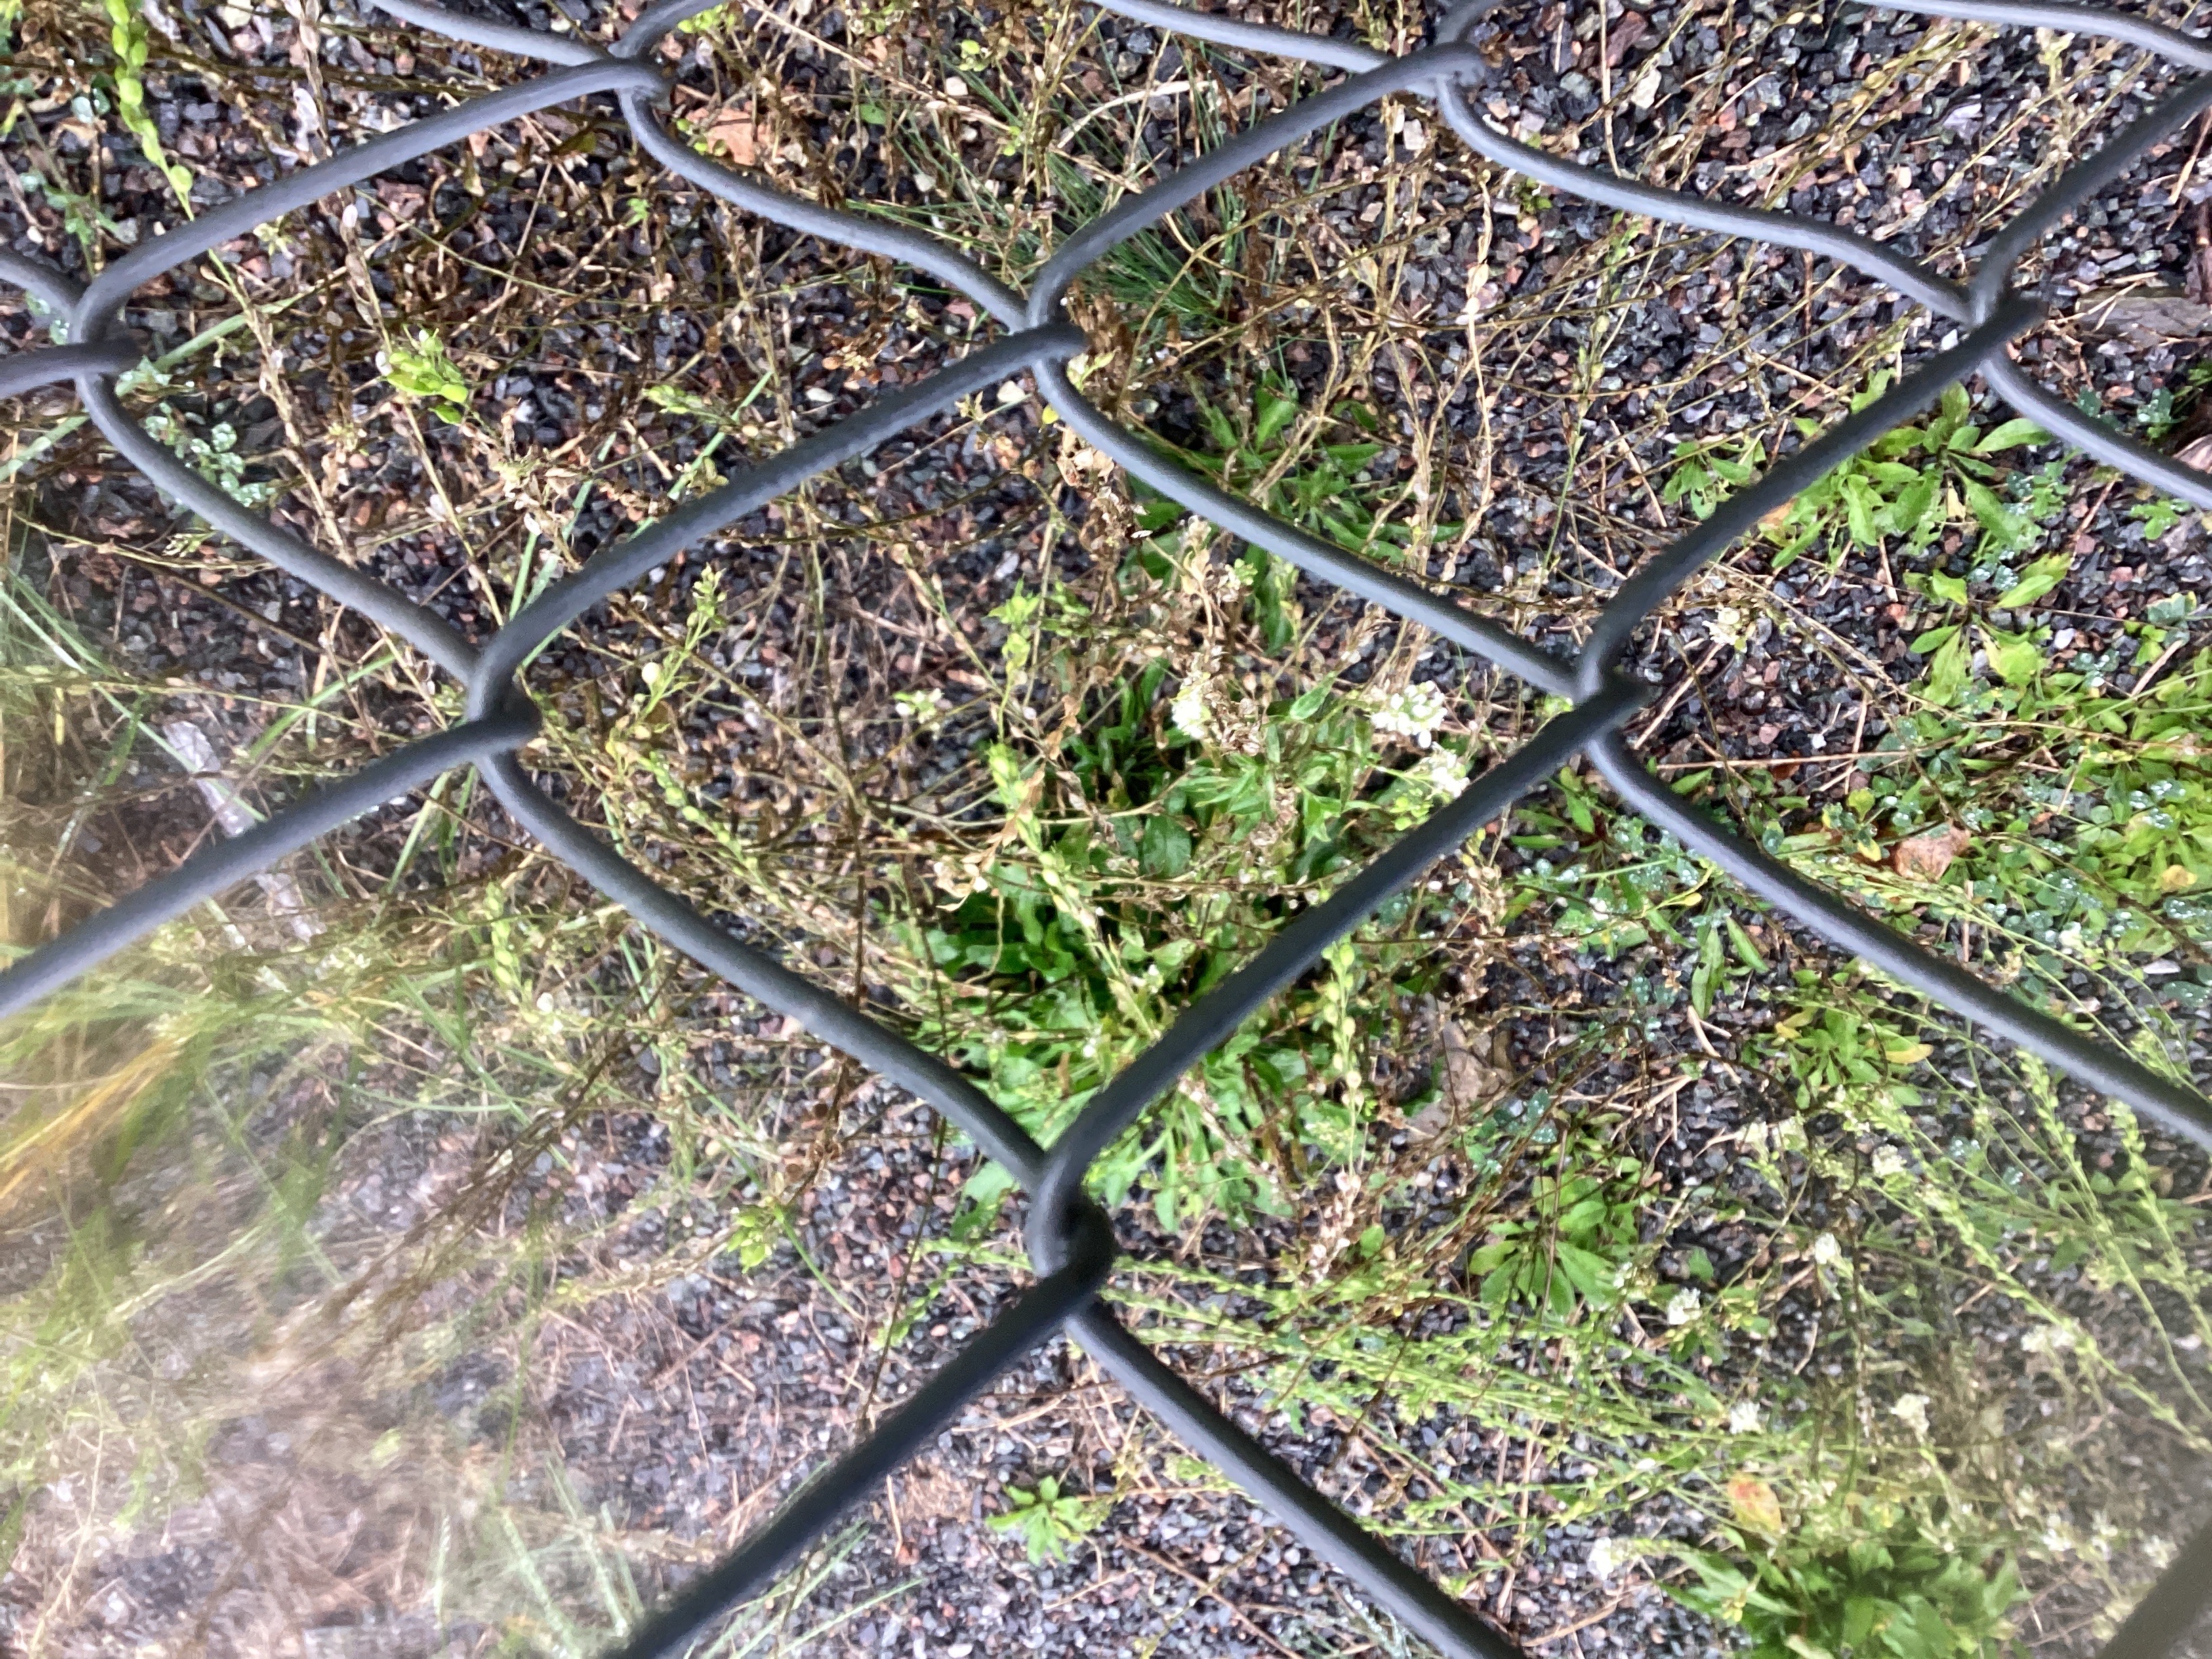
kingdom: Plantae
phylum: Tracheophyta
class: Magnoliopsida
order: Brassicales
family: Brassicaceae
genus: Berteroa
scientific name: Berteroa incana
